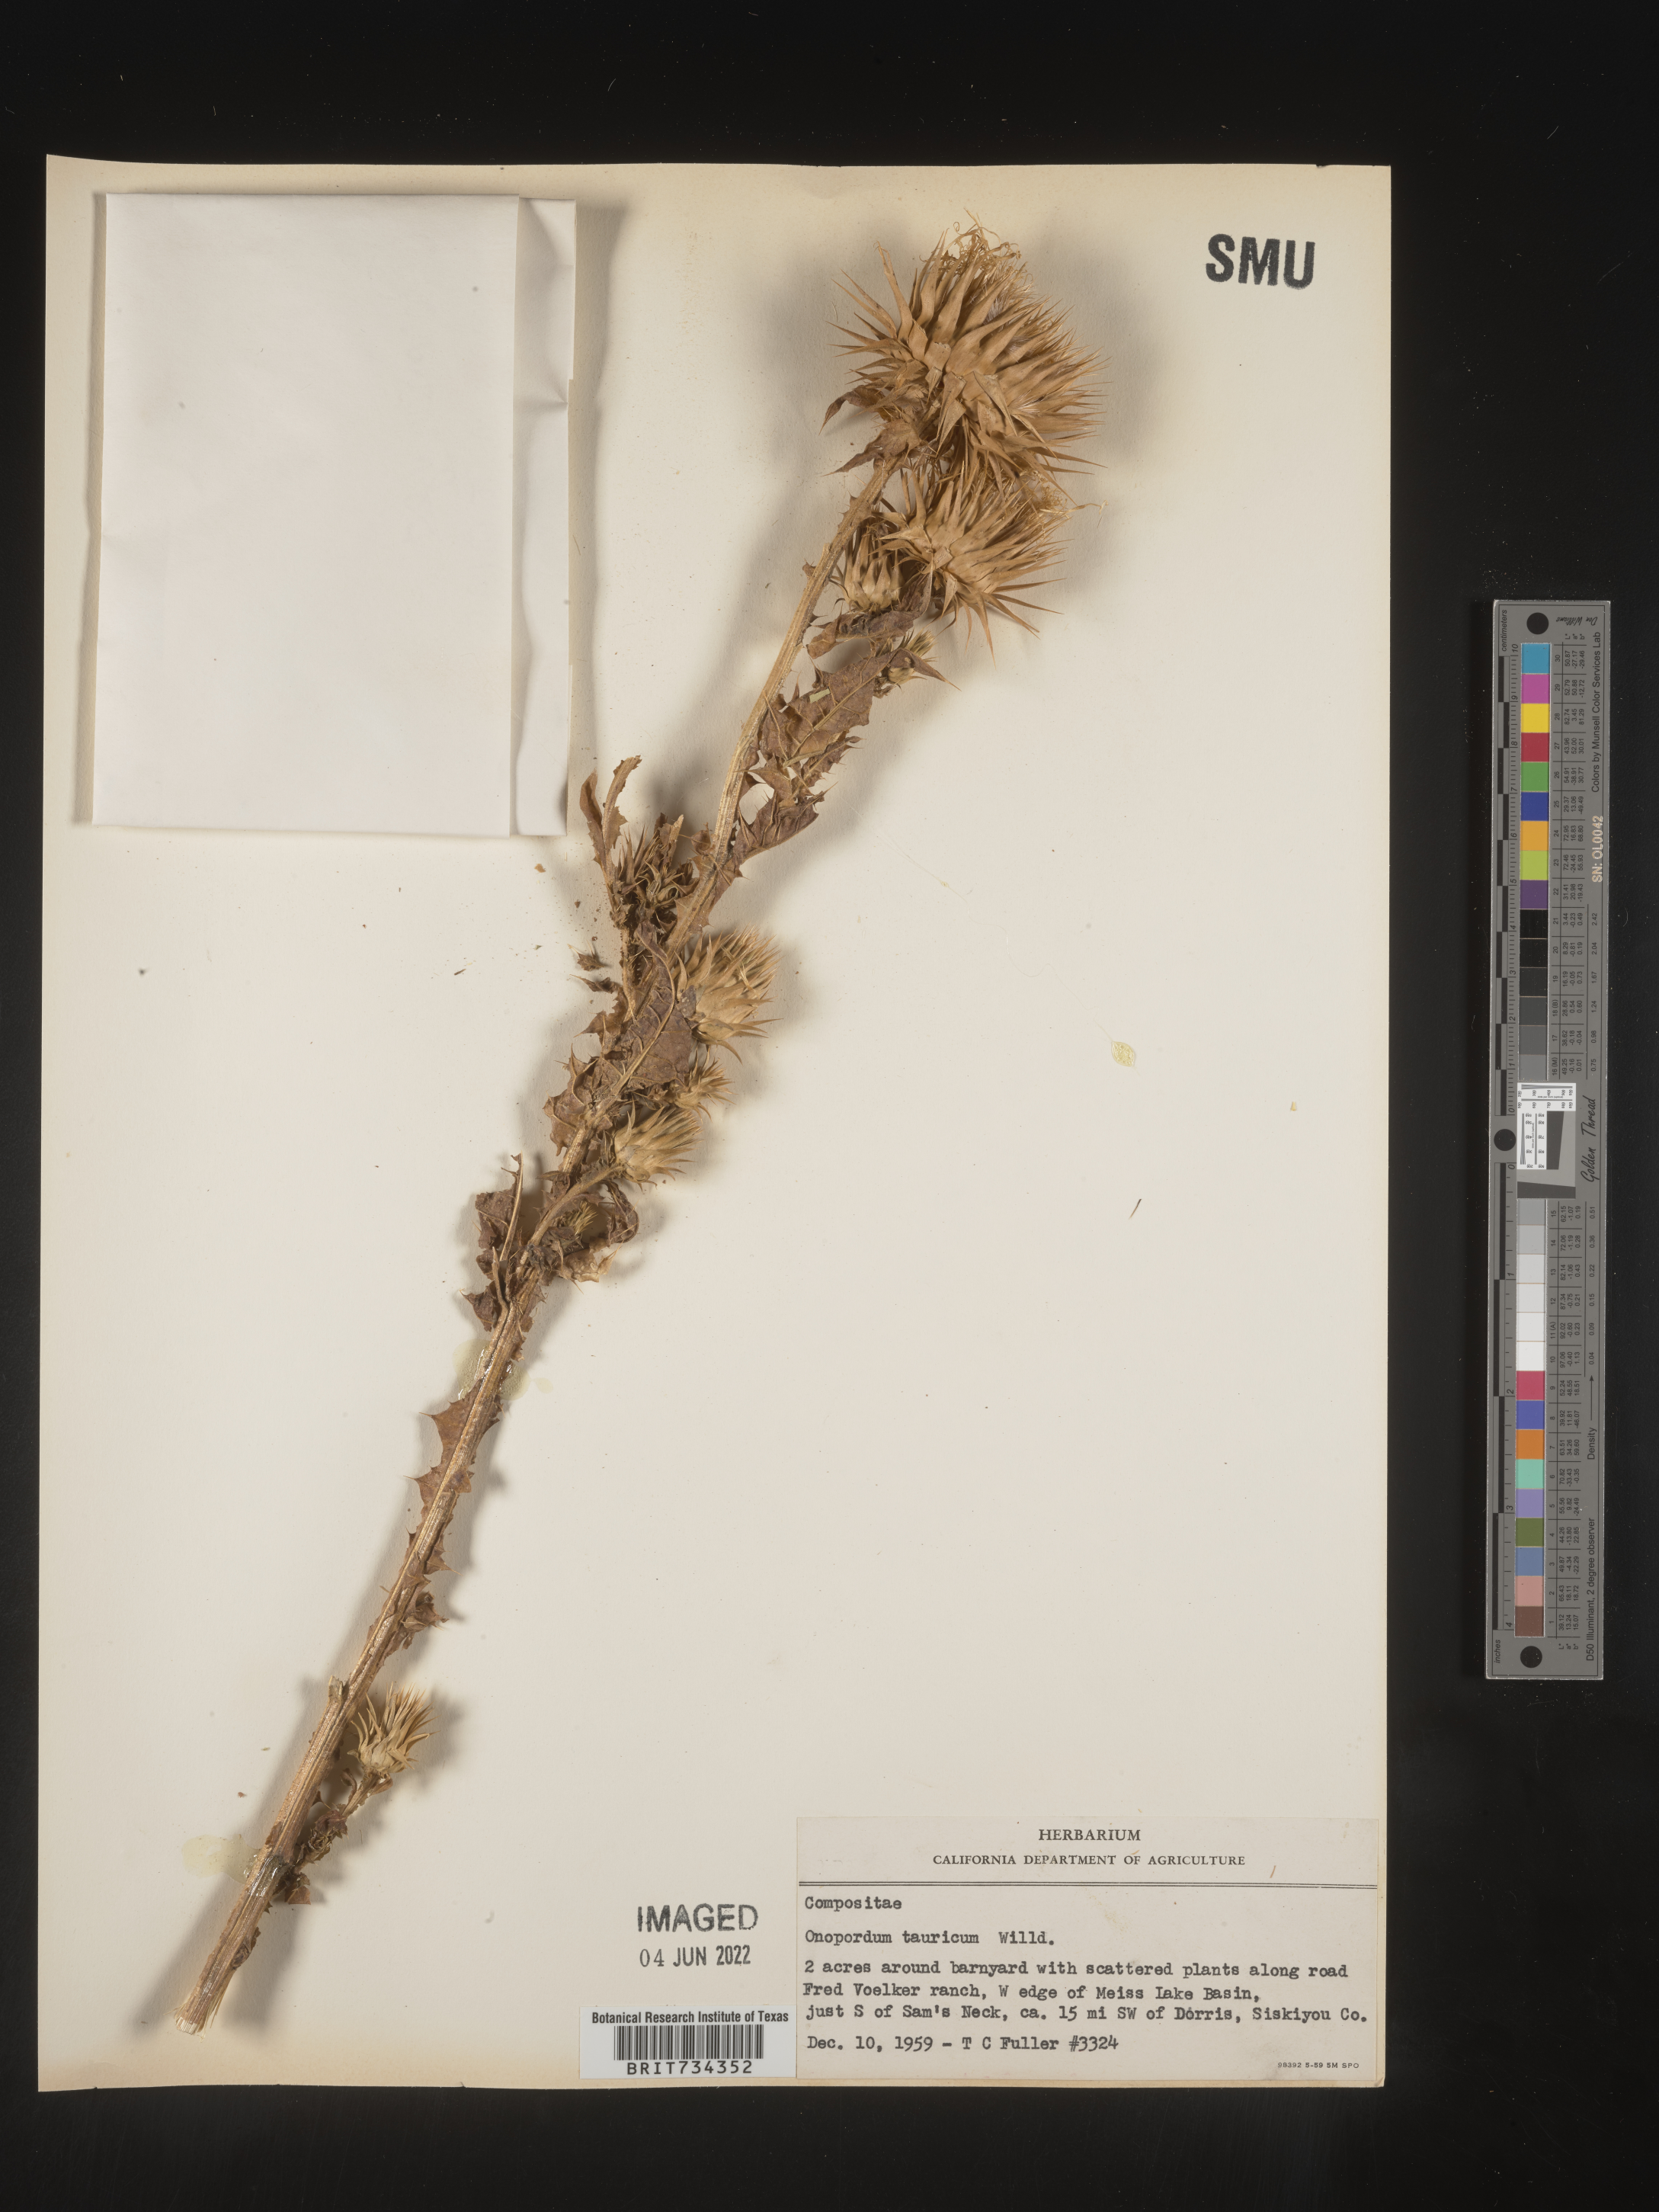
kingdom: Plantae
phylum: Tracheophyta
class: Magnoliopsida
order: Asterales
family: Asteraceae
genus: Onopordum
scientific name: Onopordum acanthium
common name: Scotch thistle
